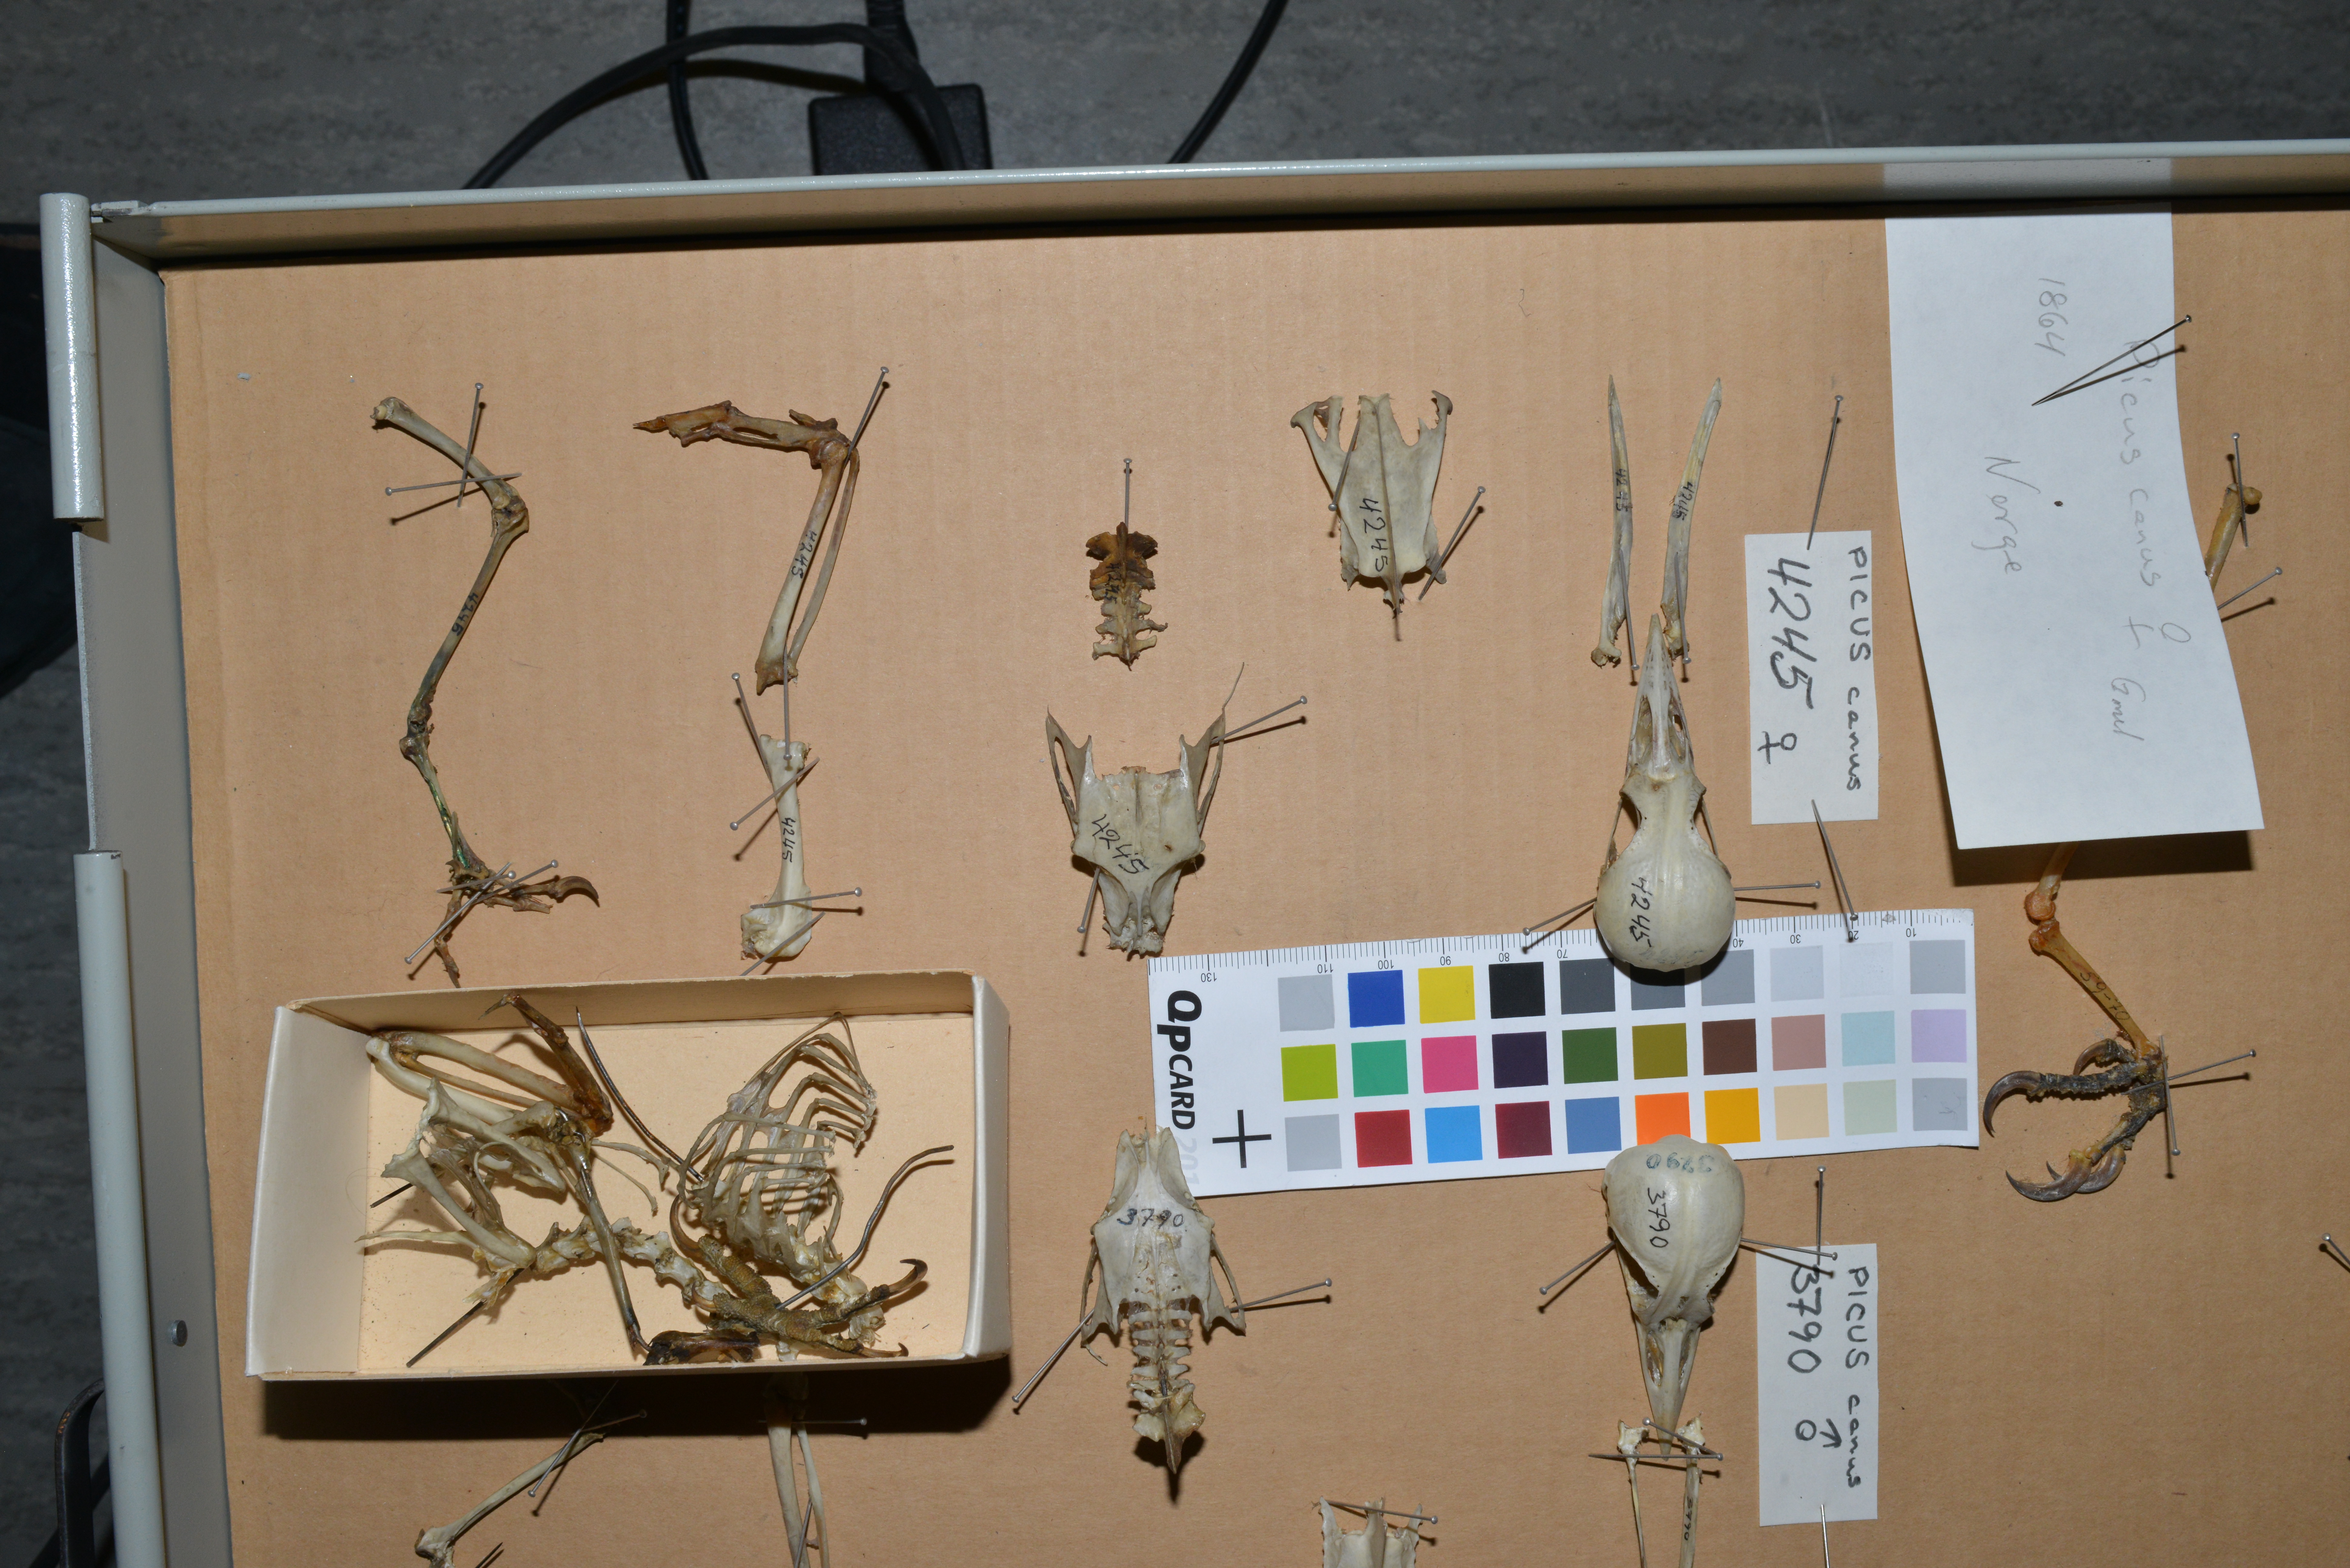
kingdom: Animalia
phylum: Chordata
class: Aves
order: Piciformes
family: Picidae
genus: Picus
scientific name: Picus canus
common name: Grey-headed woodpecker
